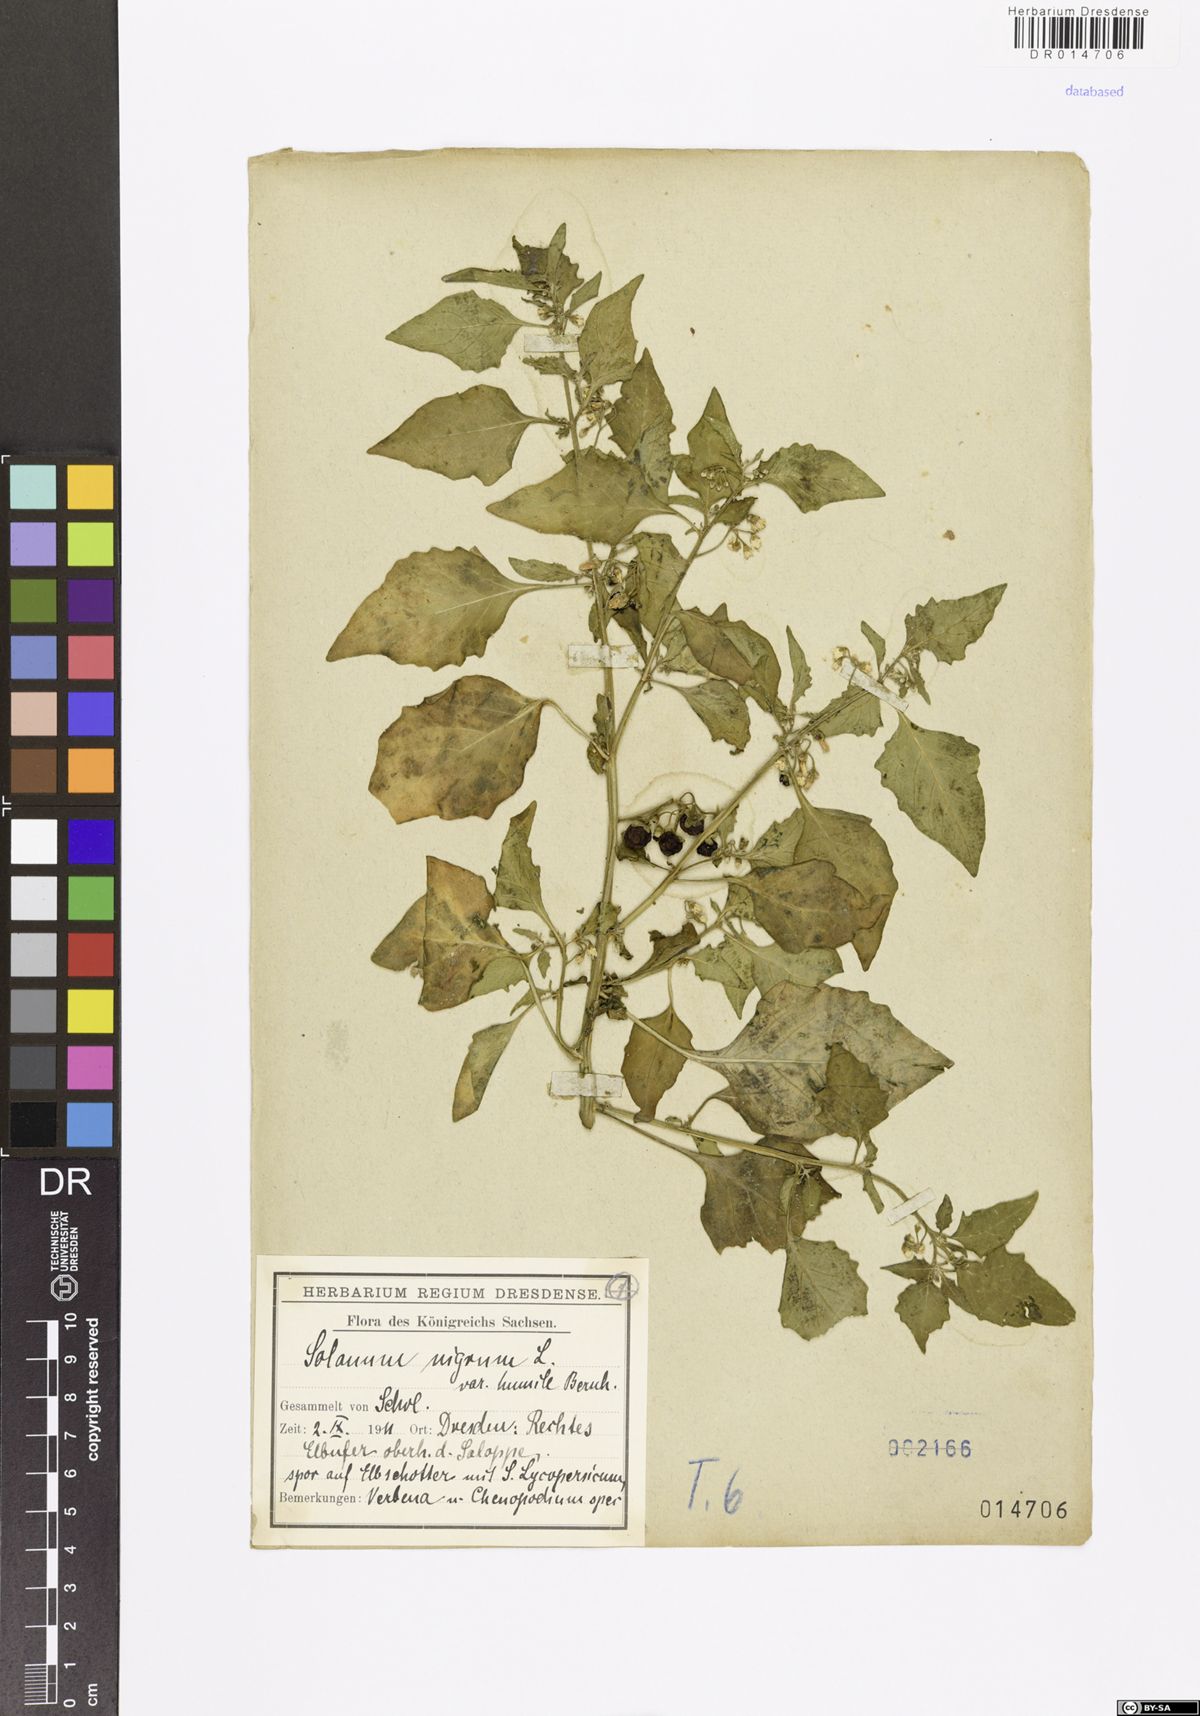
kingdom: Plantae
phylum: Tracheophyta
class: Magnoliopsida
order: Solanales
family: Solanaceae
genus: Solanum
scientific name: Solanum nigrum
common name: Black nightshade
